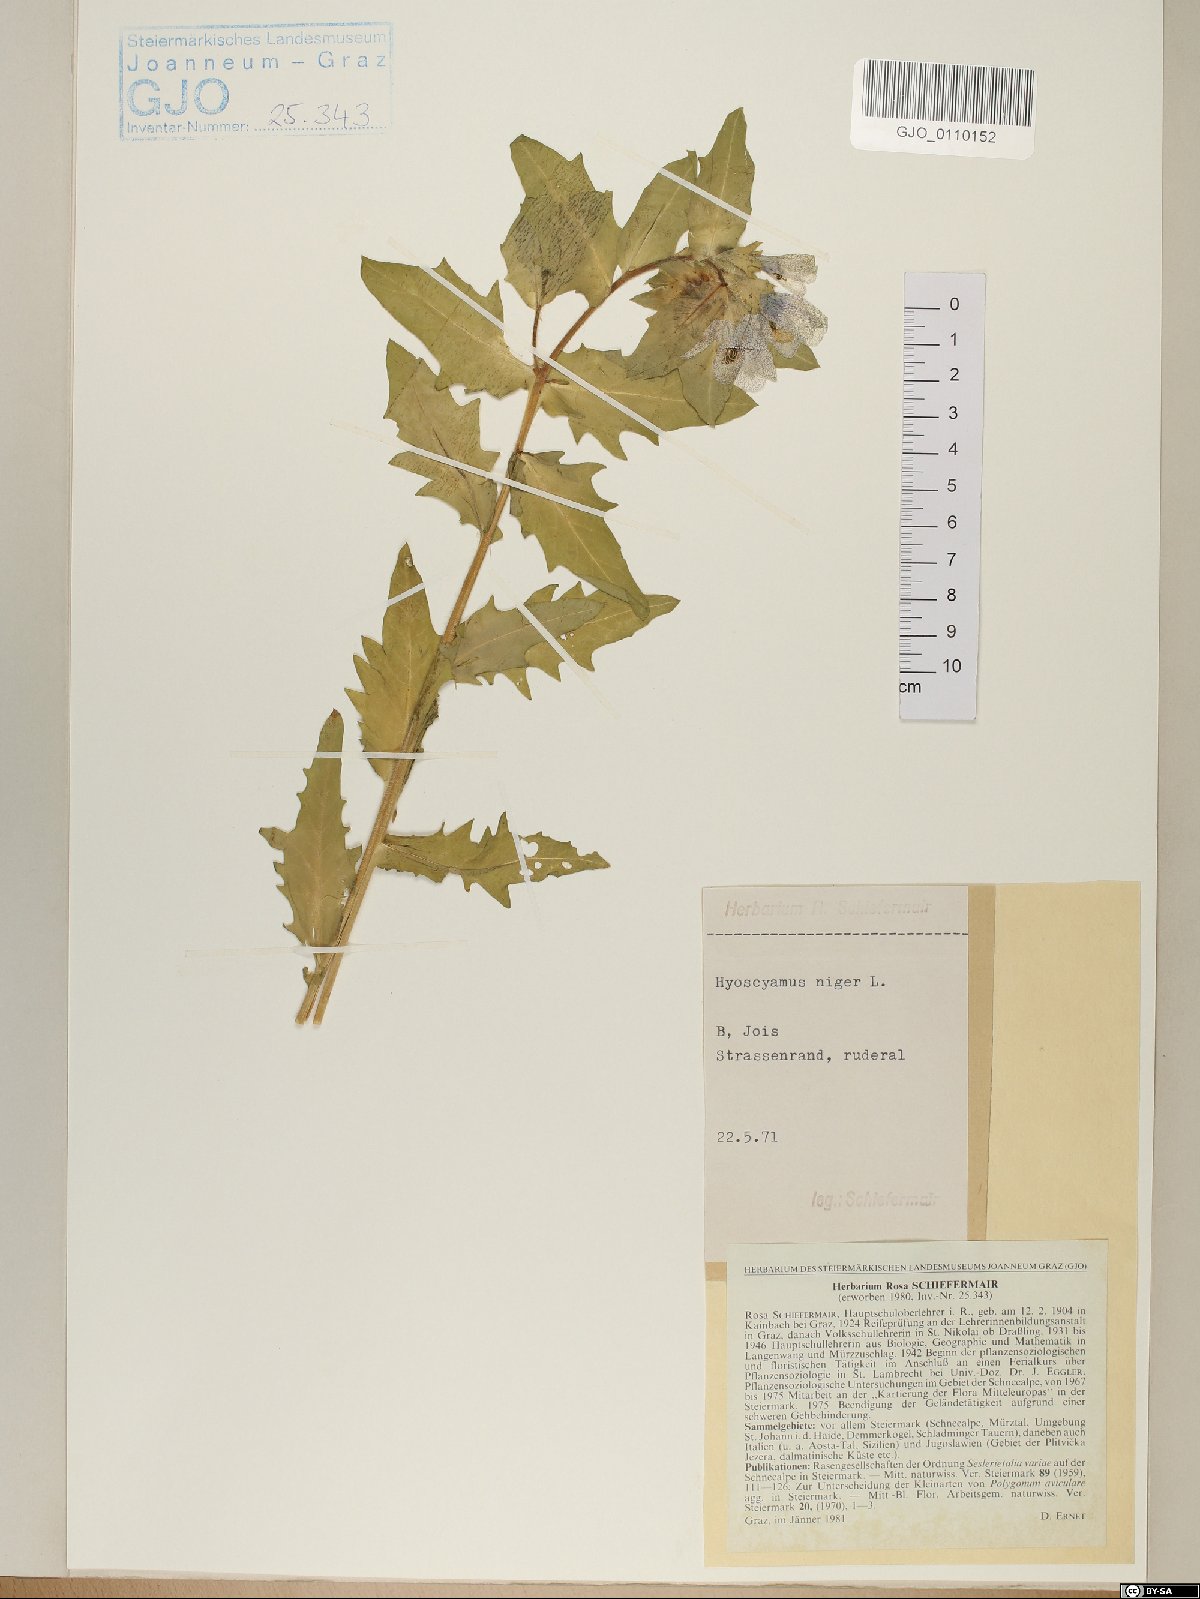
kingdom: Plantae
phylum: Tracheophyta
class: Magnoliopsida
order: Solanales
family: Solanaceae
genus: Hyoscyamus
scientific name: Hyoscyamus niger
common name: Henbane
